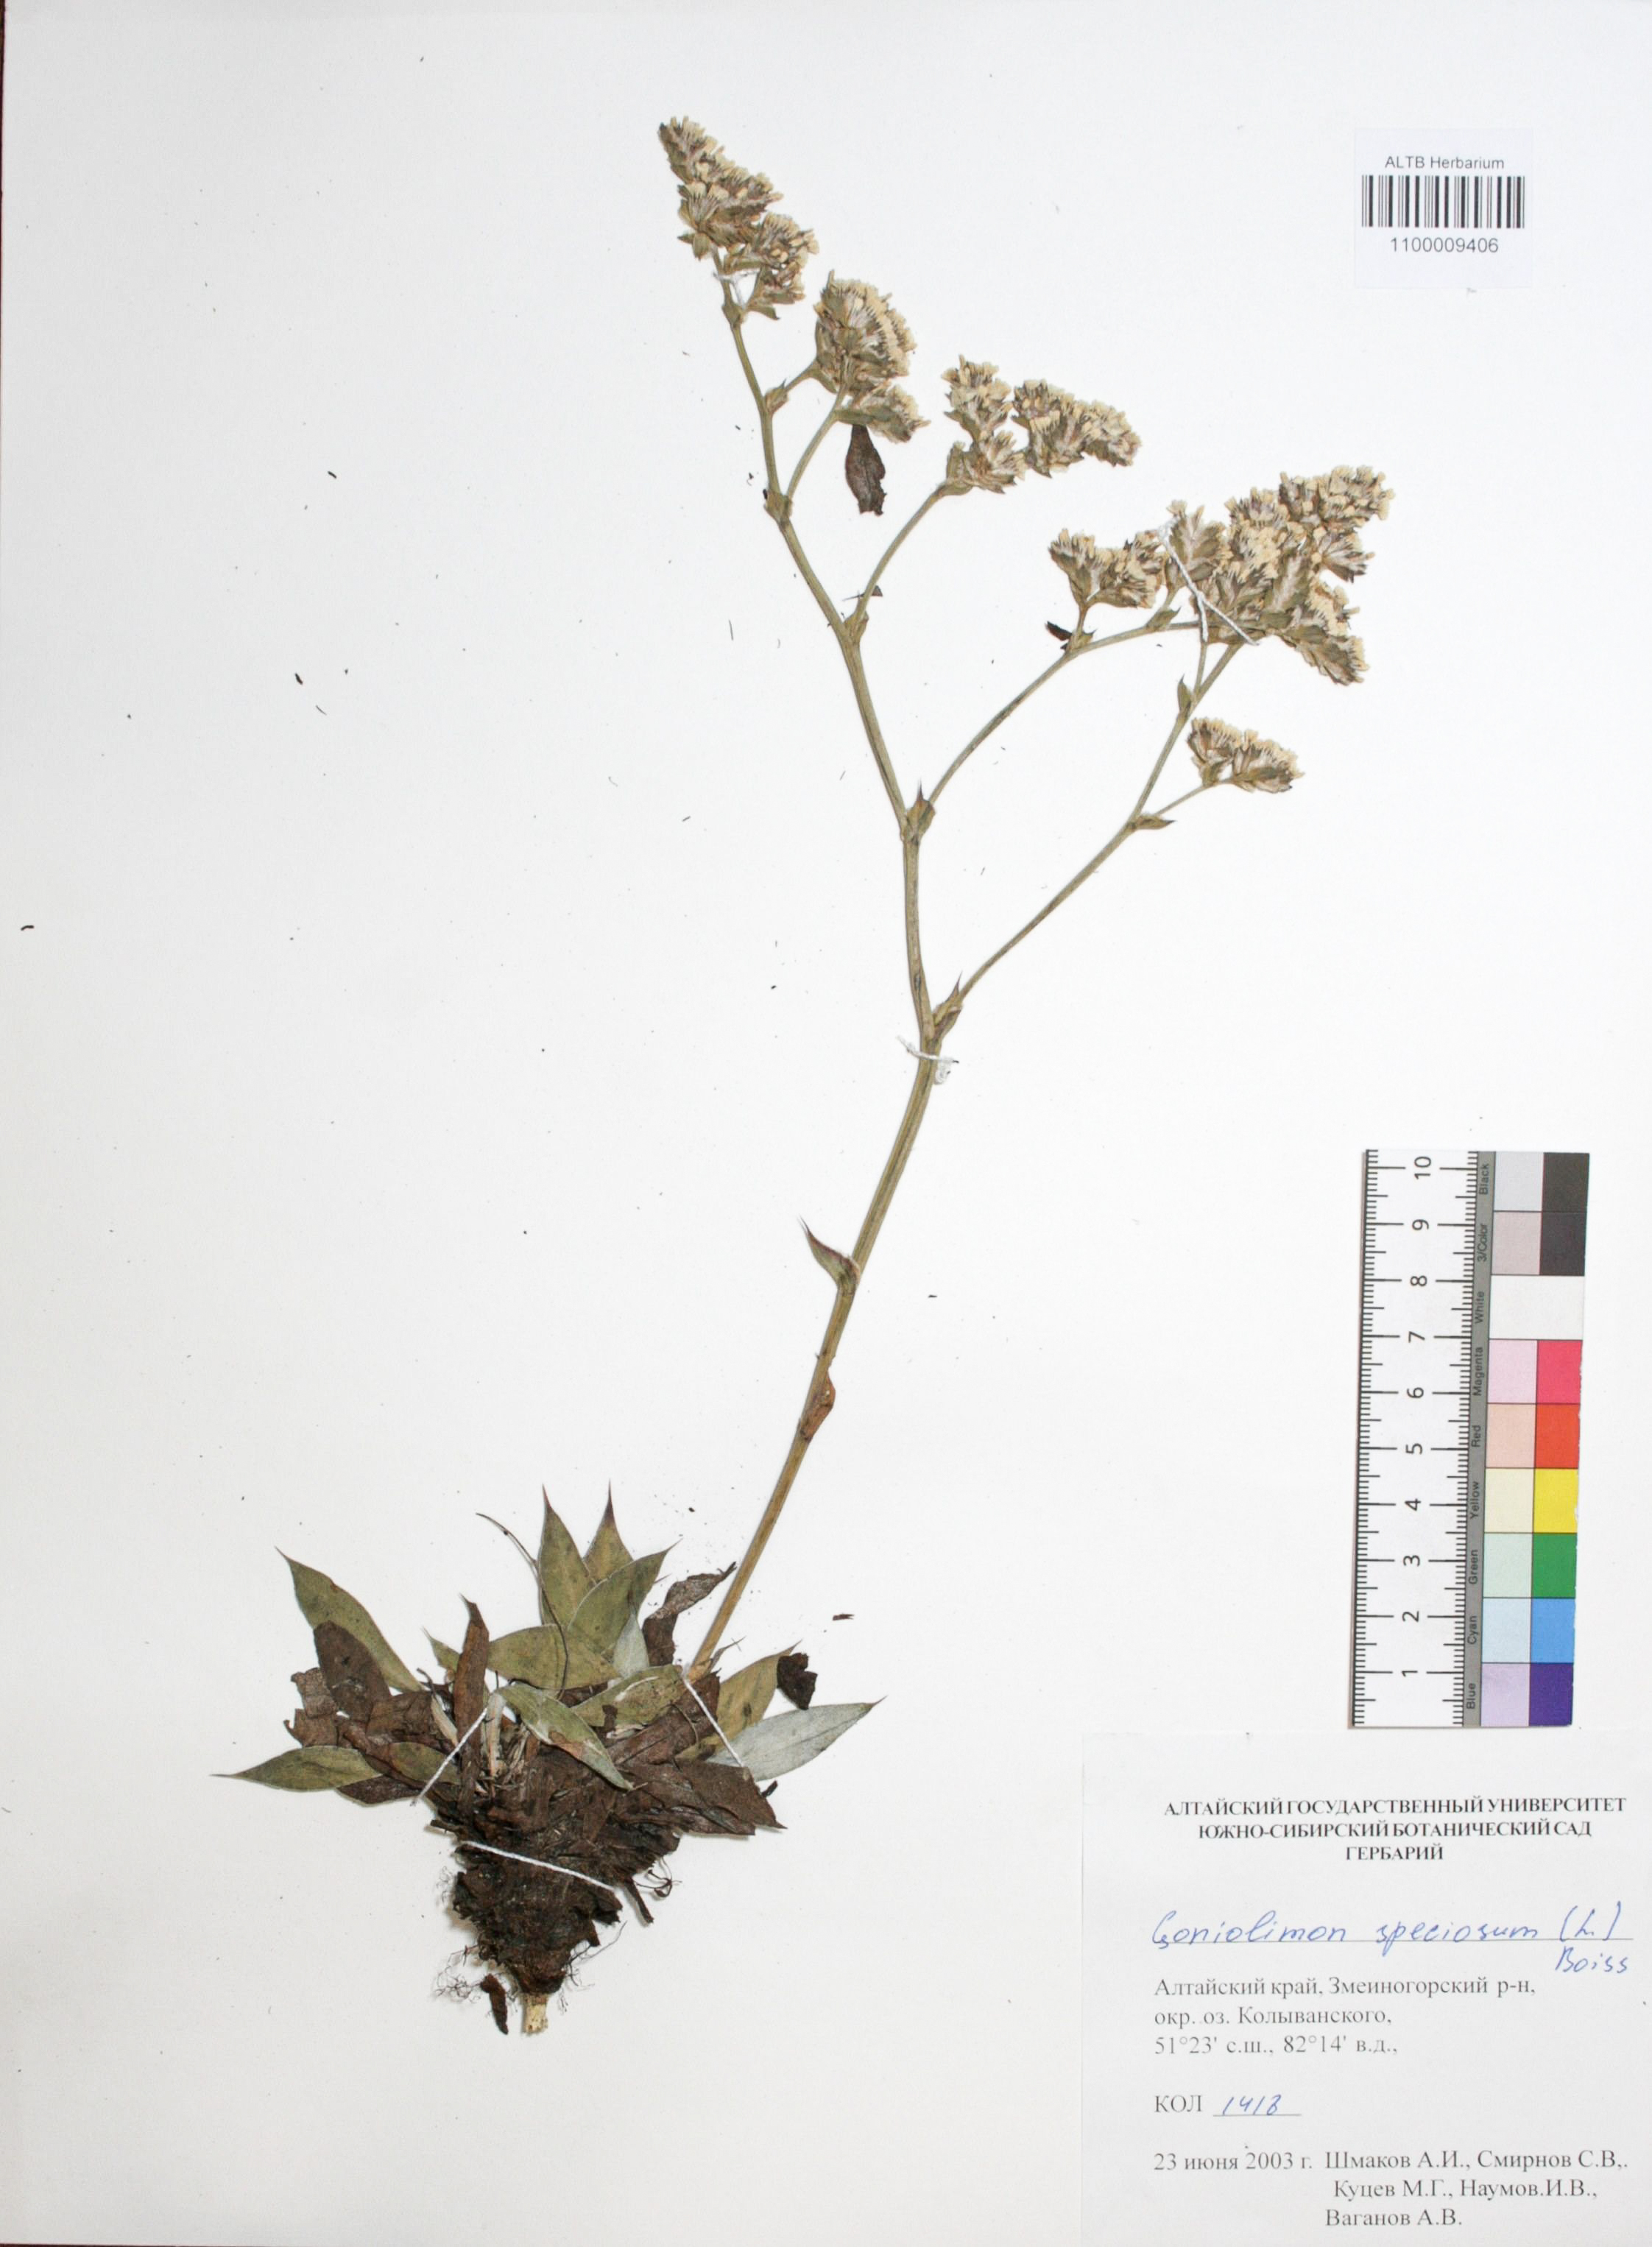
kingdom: Plantae
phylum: Tracheophyta
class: Magnoliopsida
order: Caryophyllales
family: Plumbaginaceae
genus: Goniolimon
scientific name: Goniolimon speciosum
